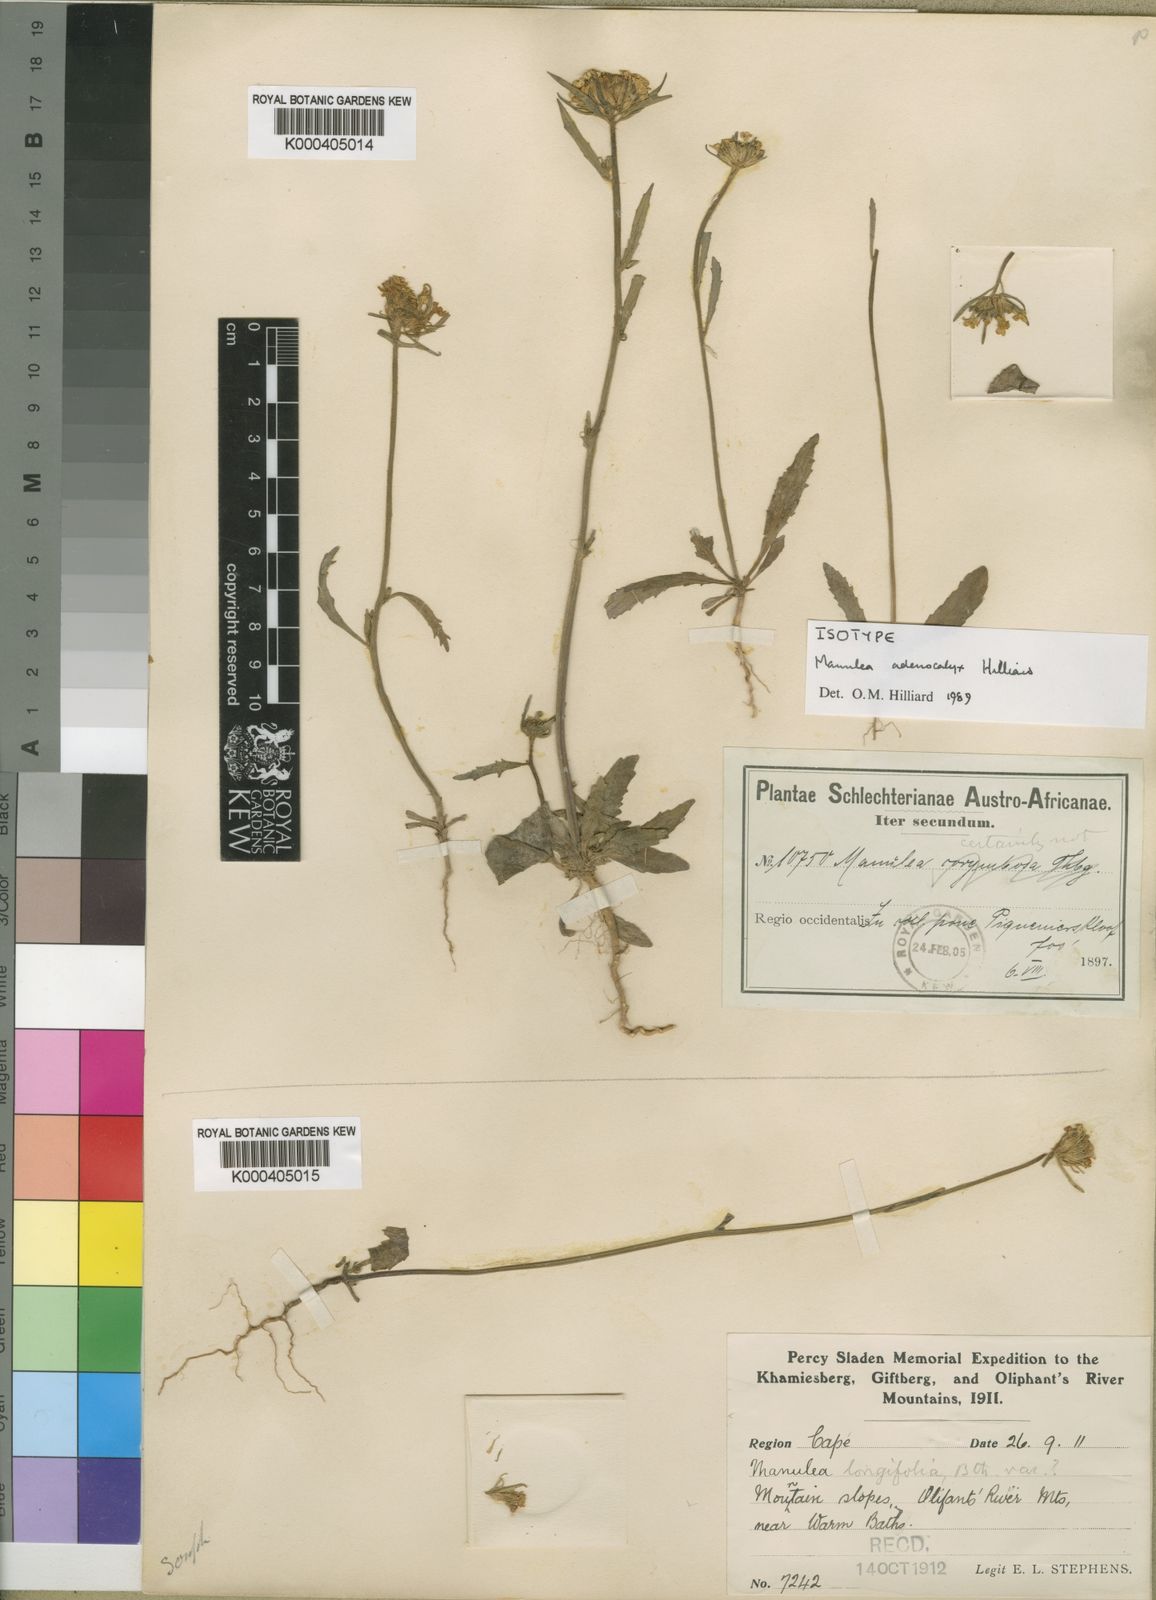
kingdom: Plantae
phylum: Tracheophyta
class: Magnoliopsida
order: Lamiales
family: Scrophulariaceae
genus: Manulea
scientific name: Manulea adenocalyx
